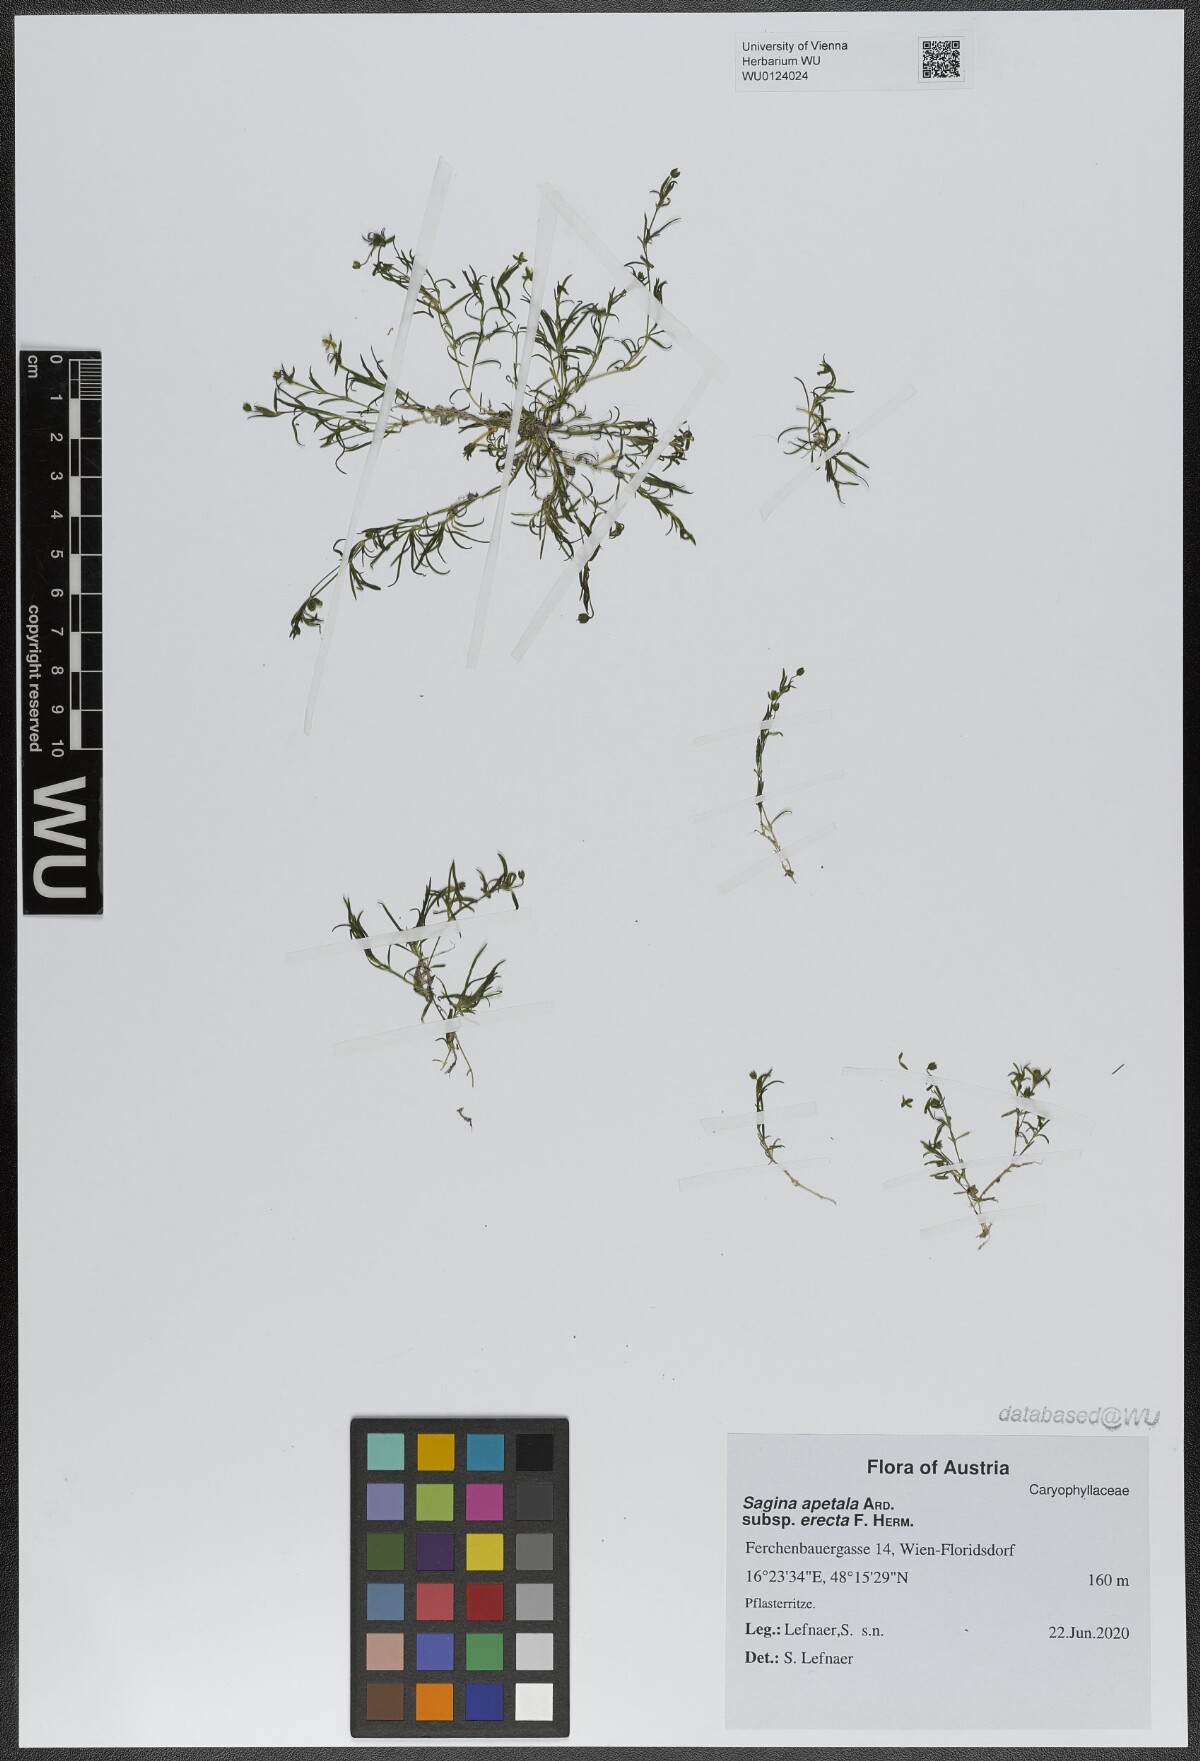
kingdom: Plantae
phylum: Tracheophyta
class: Magnoliopsida
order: Caryophyllales
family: Caryophyllaceae
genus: Sagina
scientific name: Sagina micropetala
